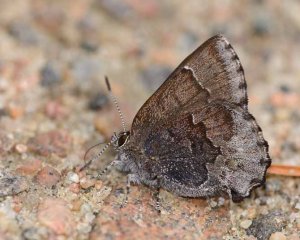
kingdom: Animalia
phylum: Arthropoda
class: Insecta
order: Lepidoptera
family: Lycaenidae
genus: Callophrys
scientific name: Callophrys polios
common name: Hoary Elfin
